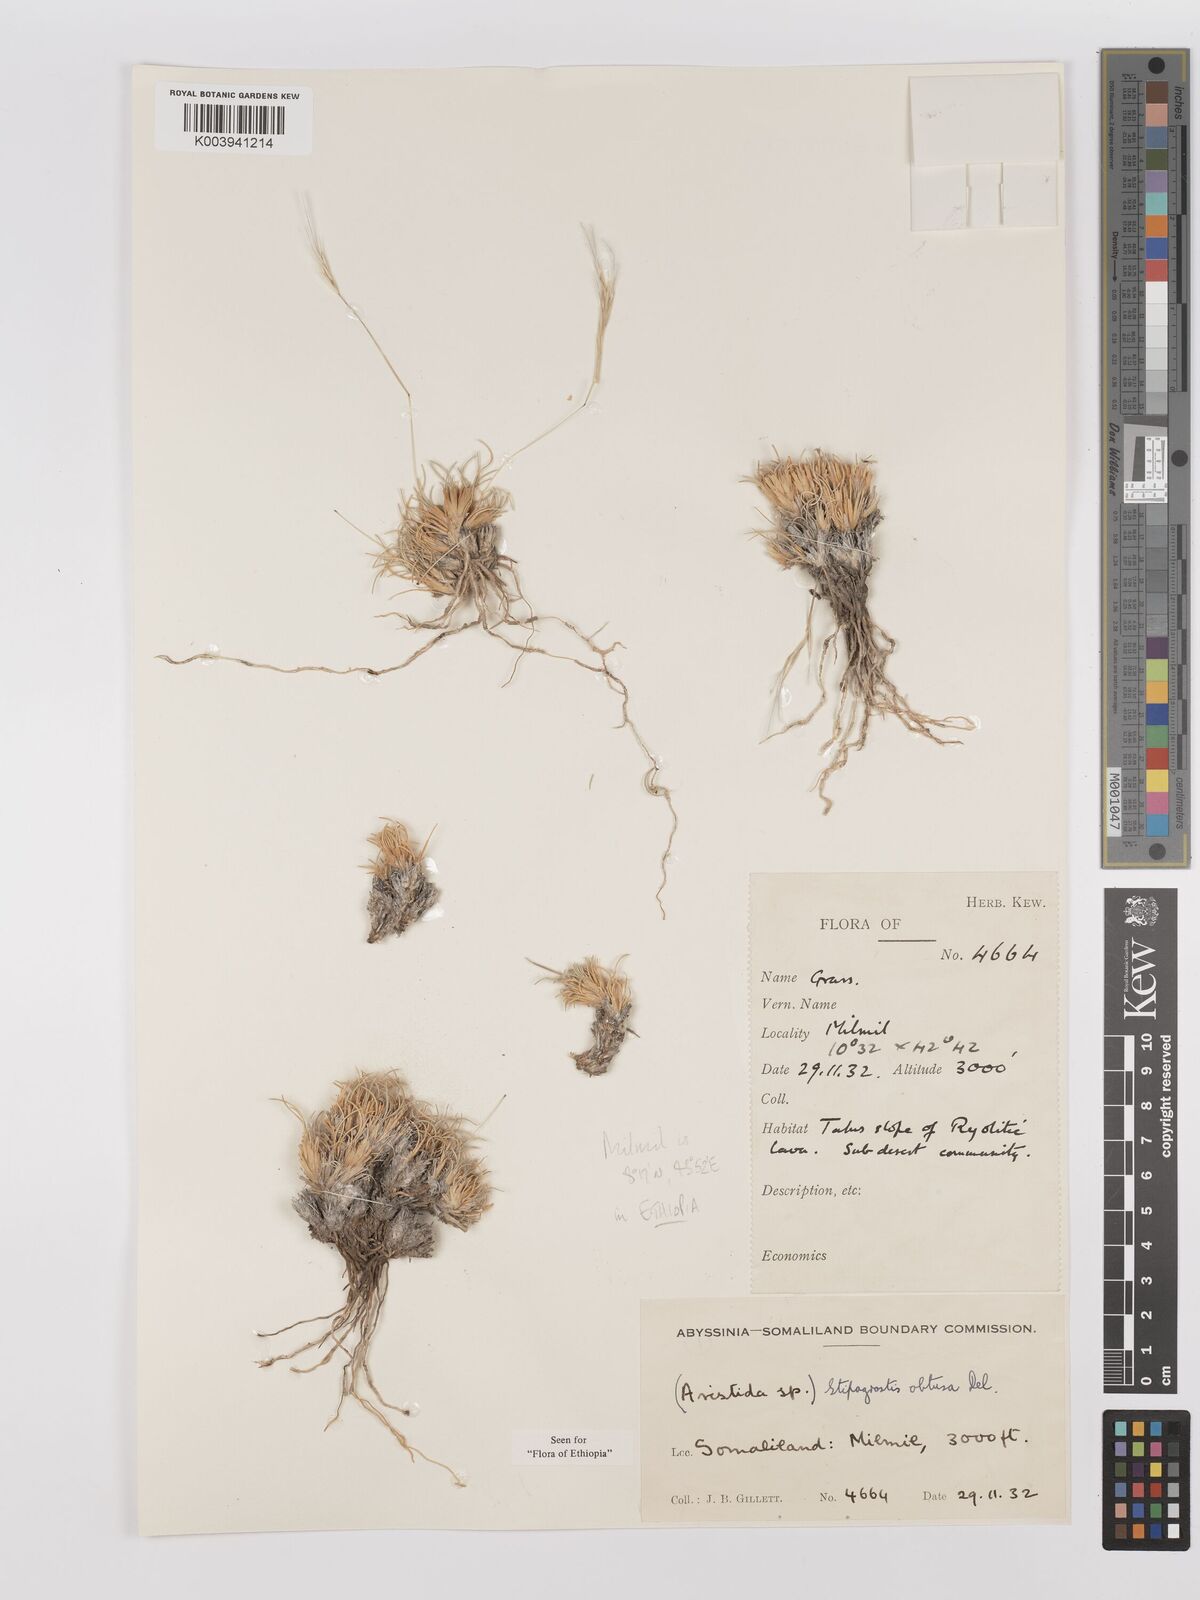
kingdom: Plantae
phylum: Tracheophyta
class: Liliopsida
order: Poales
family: Poaceae
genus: Stipagrostis
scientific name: Stipagrostis obtusa
